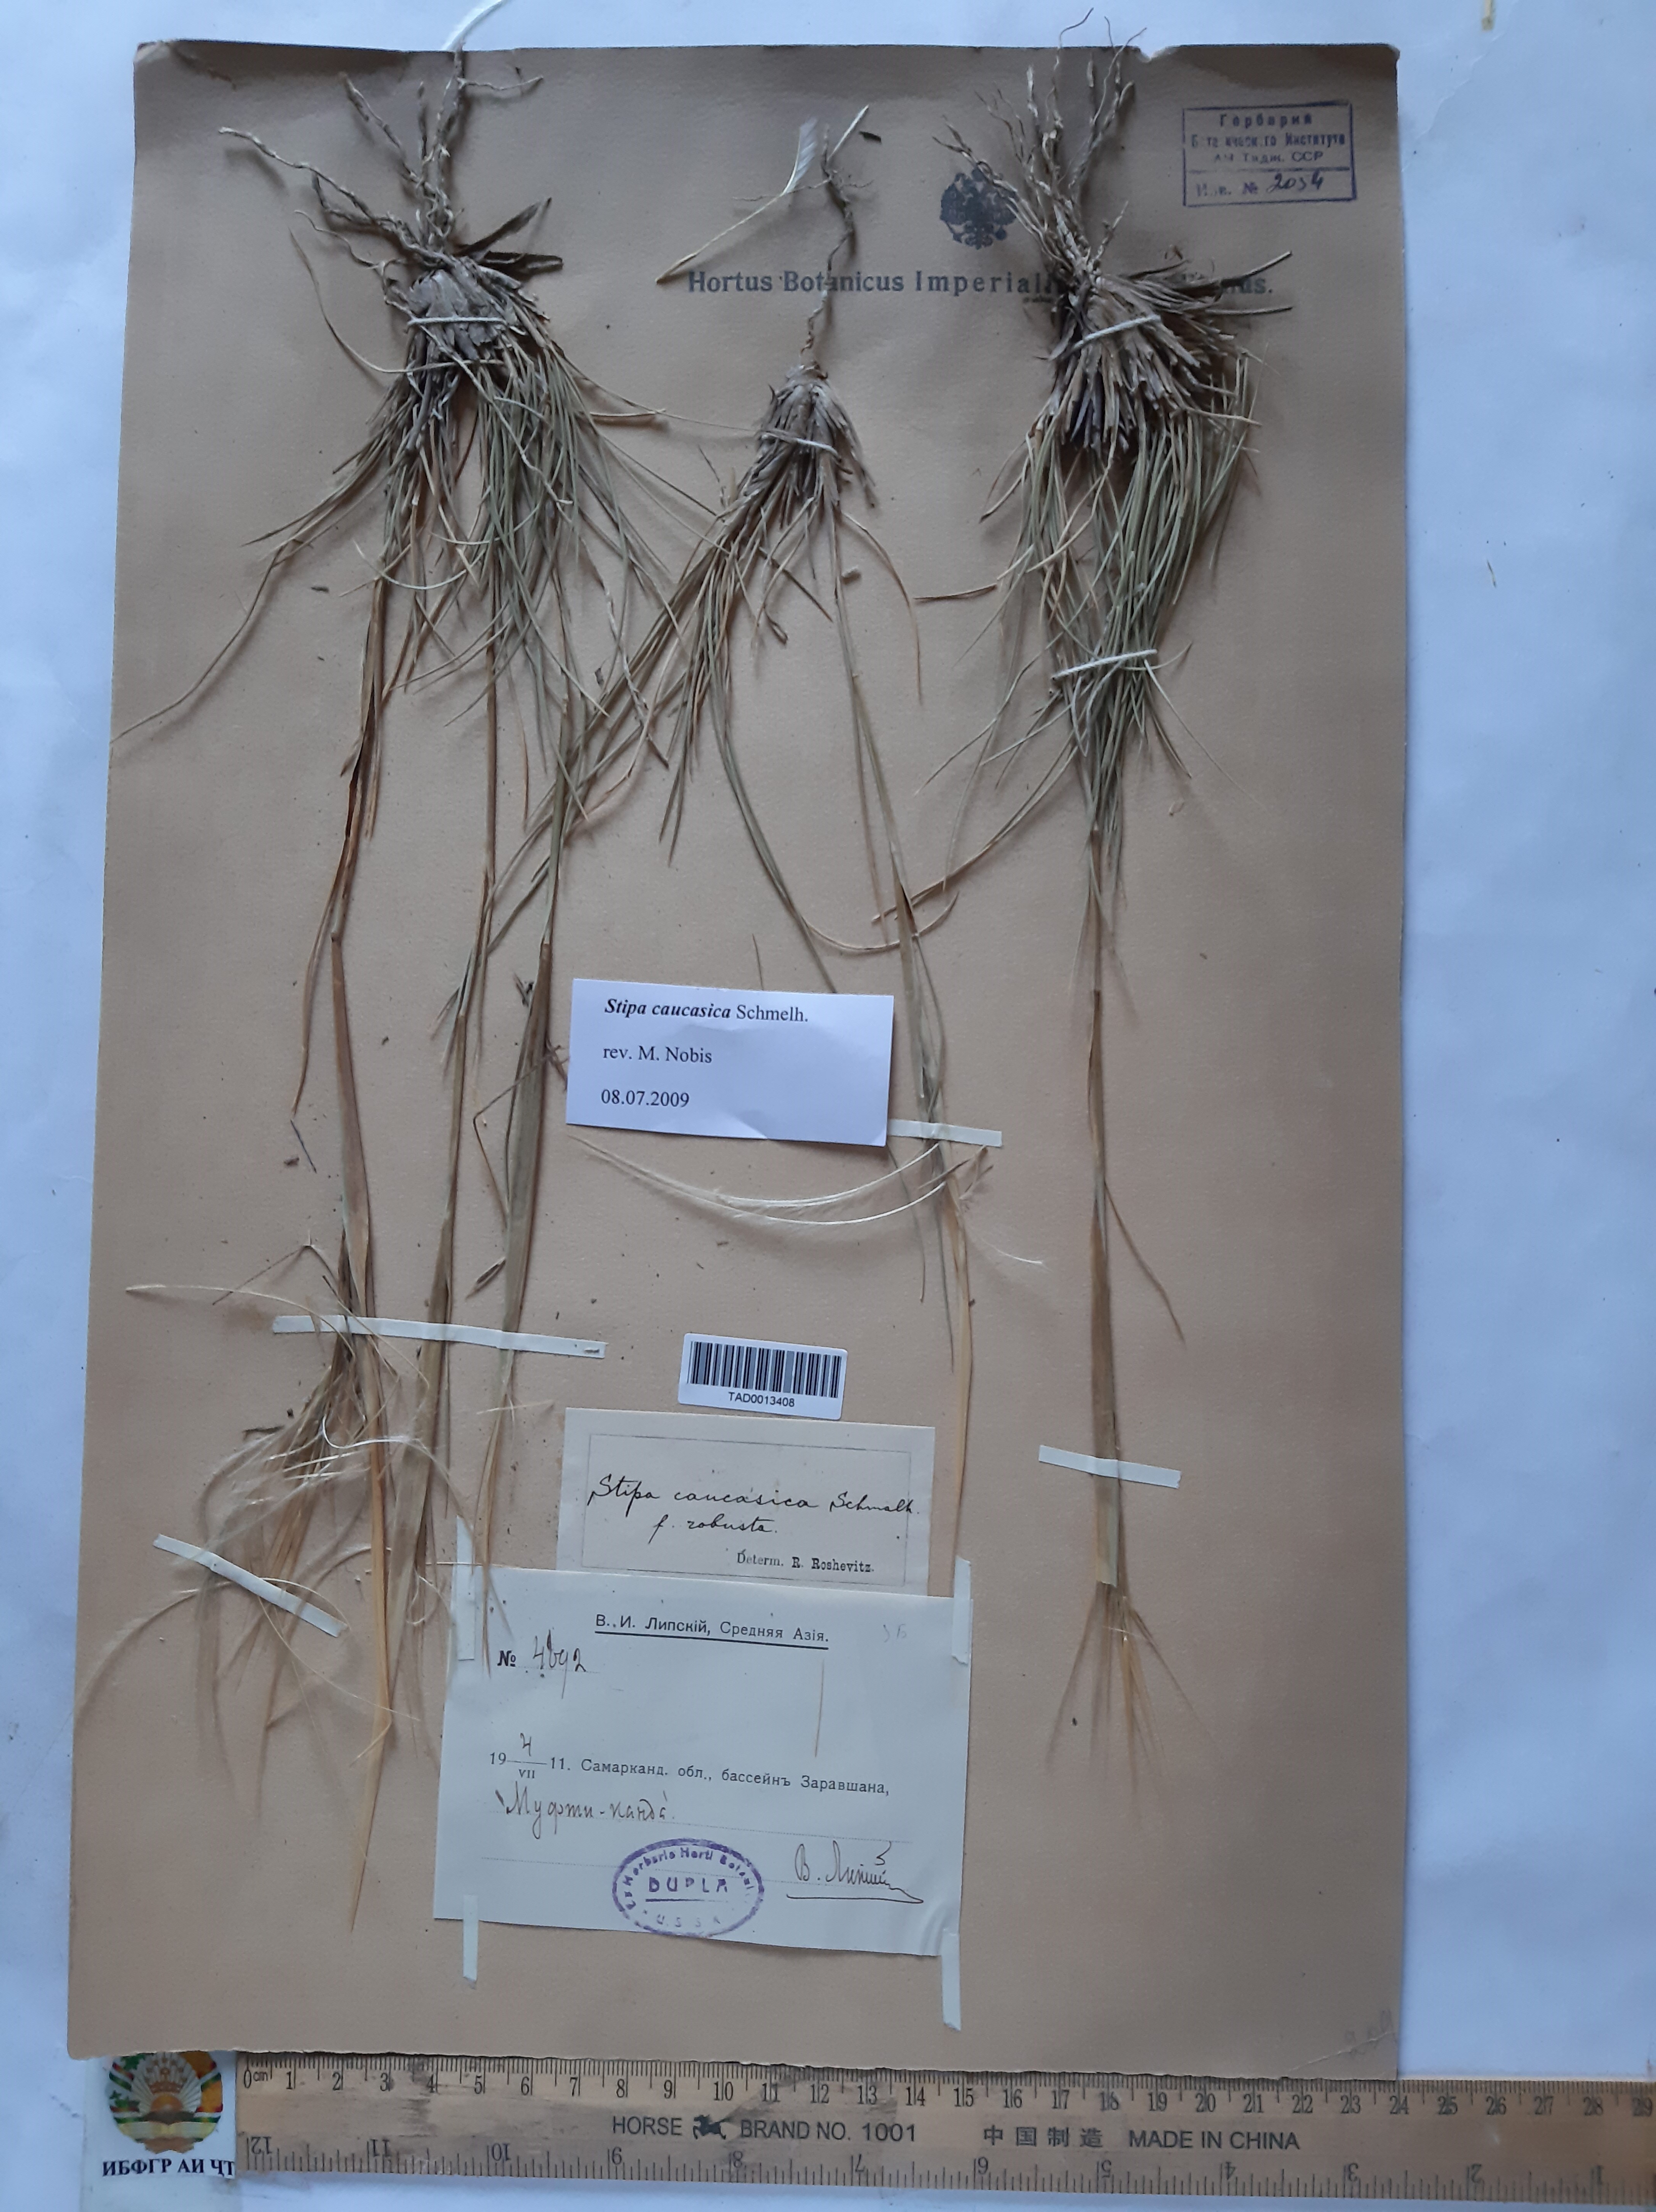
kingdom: Plantae
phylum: Tracheophyta
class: Liliopsida
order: Poales
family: Poaceae
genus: Stipa
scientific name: Stipa caucasica
